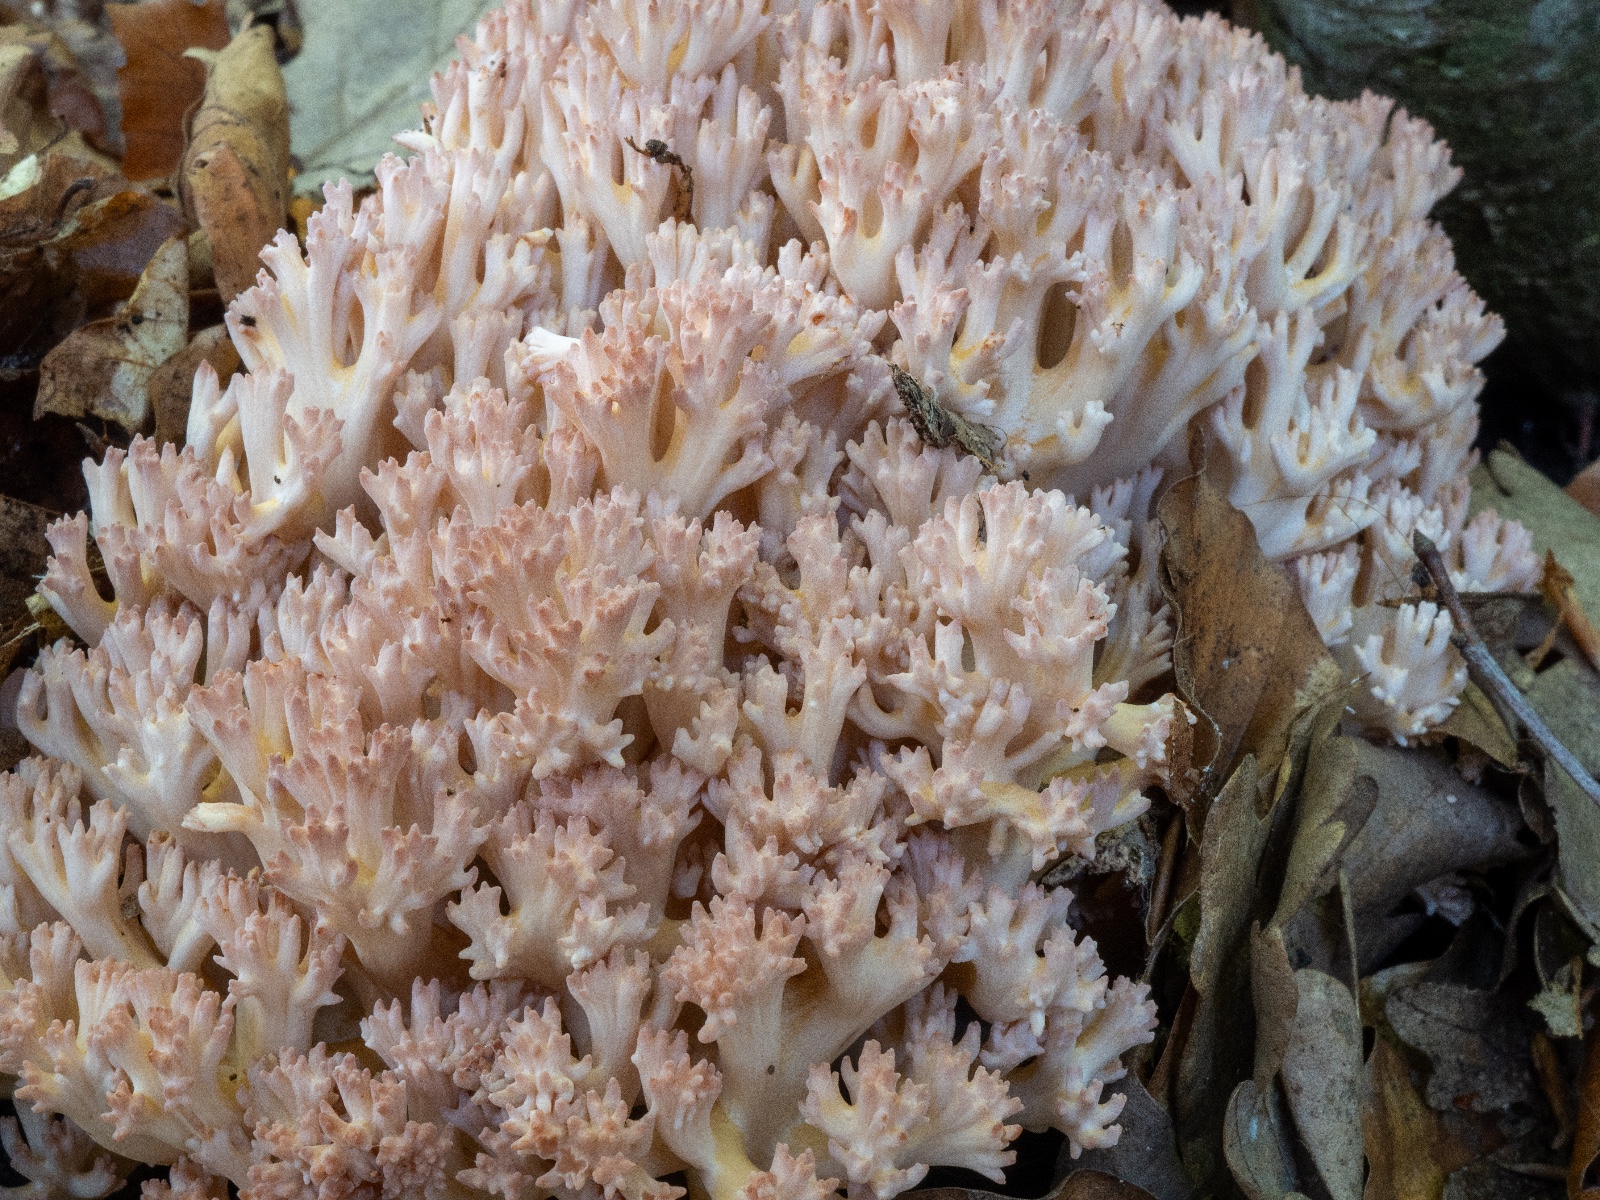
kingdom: Fungi
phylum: Basidiomycota
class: Agaricomycetes
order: Gomphales
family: Gomphaceae
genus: Ramaria
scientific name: Ramaria botrytis
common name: drue-koralsvamp
